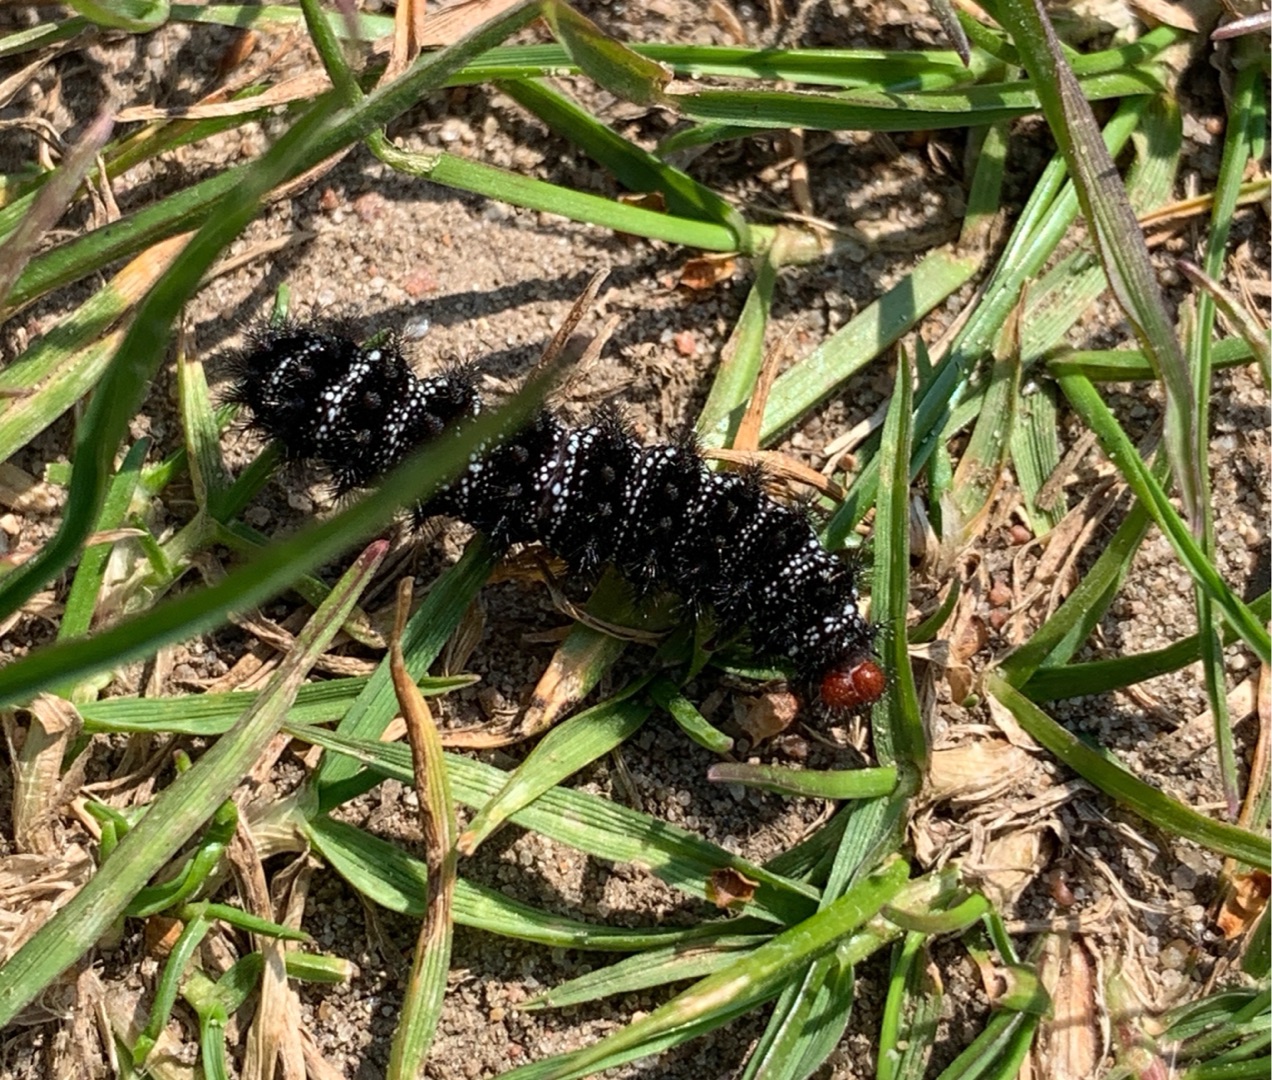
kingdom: Animalia
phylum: Arthropoda
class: Insecta
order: Lepidoptera
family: Nymphalidae
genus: Melitaea
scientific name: Melitaea cinxia
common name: Okkergul pletvinge
